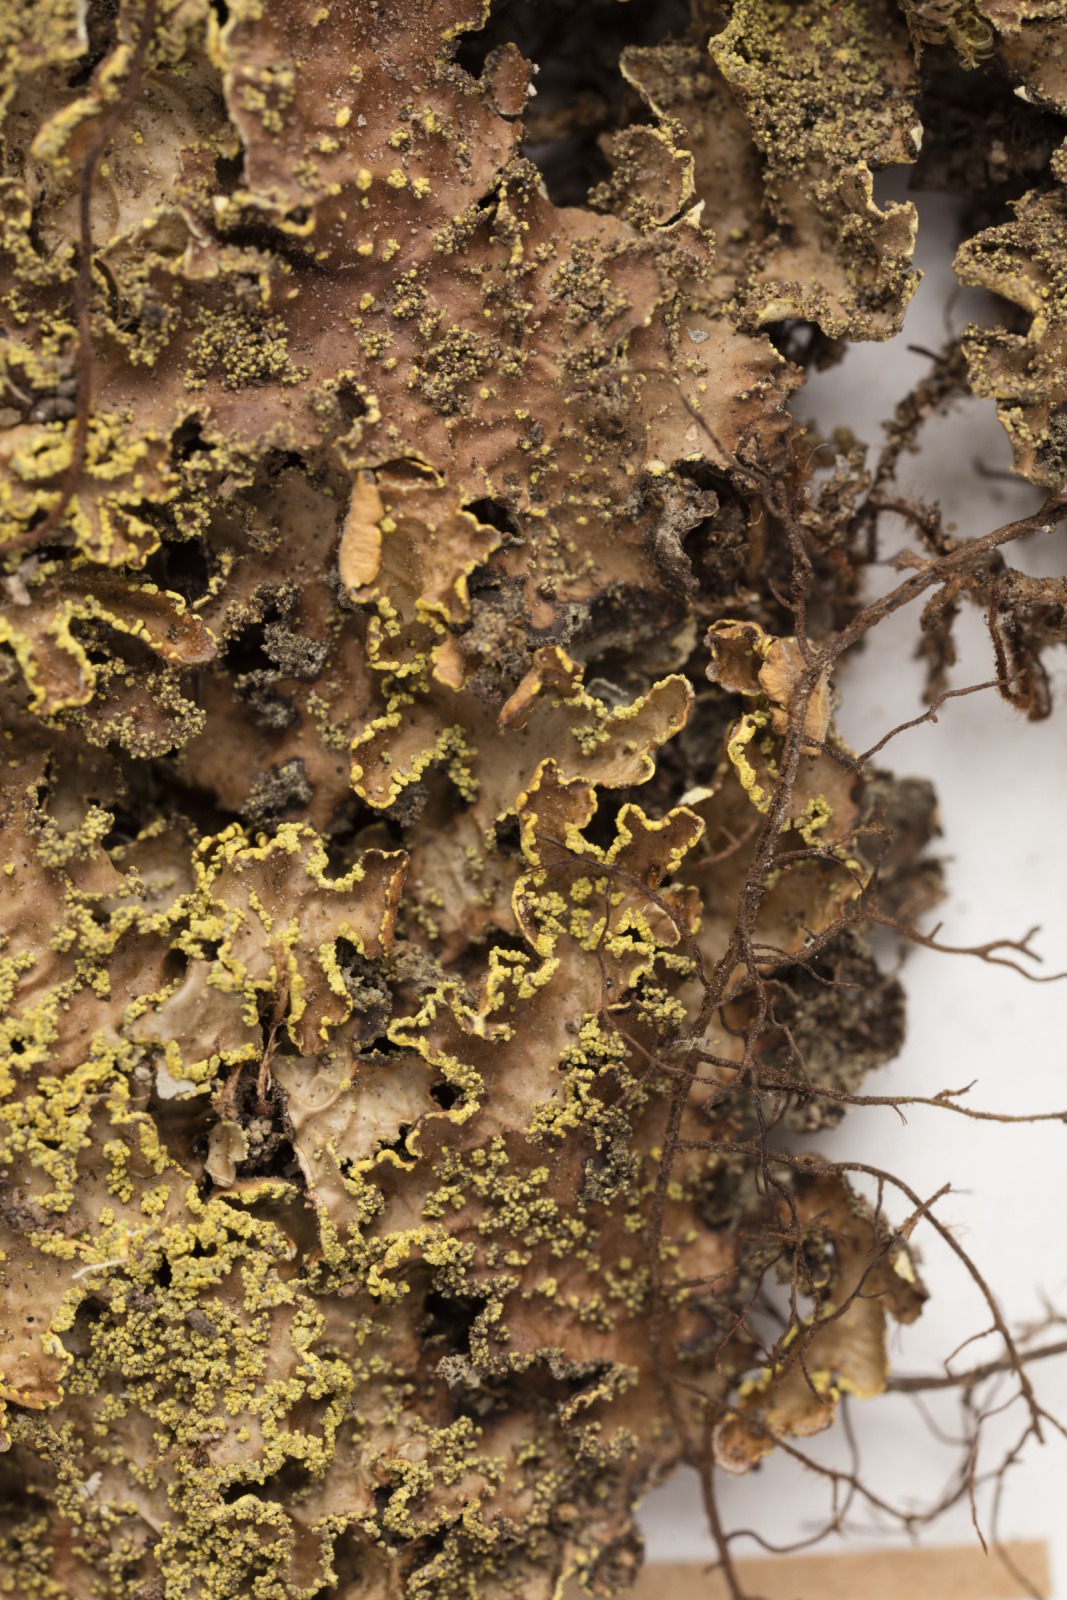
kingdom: Fungi
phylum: Ascomycota
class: Lecanoromycetes
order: Peltigerales
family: Lobariaceae
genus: Pseudocyphellaria
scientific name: Pseudocyphellaria crocata
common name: Golden specklebelly
